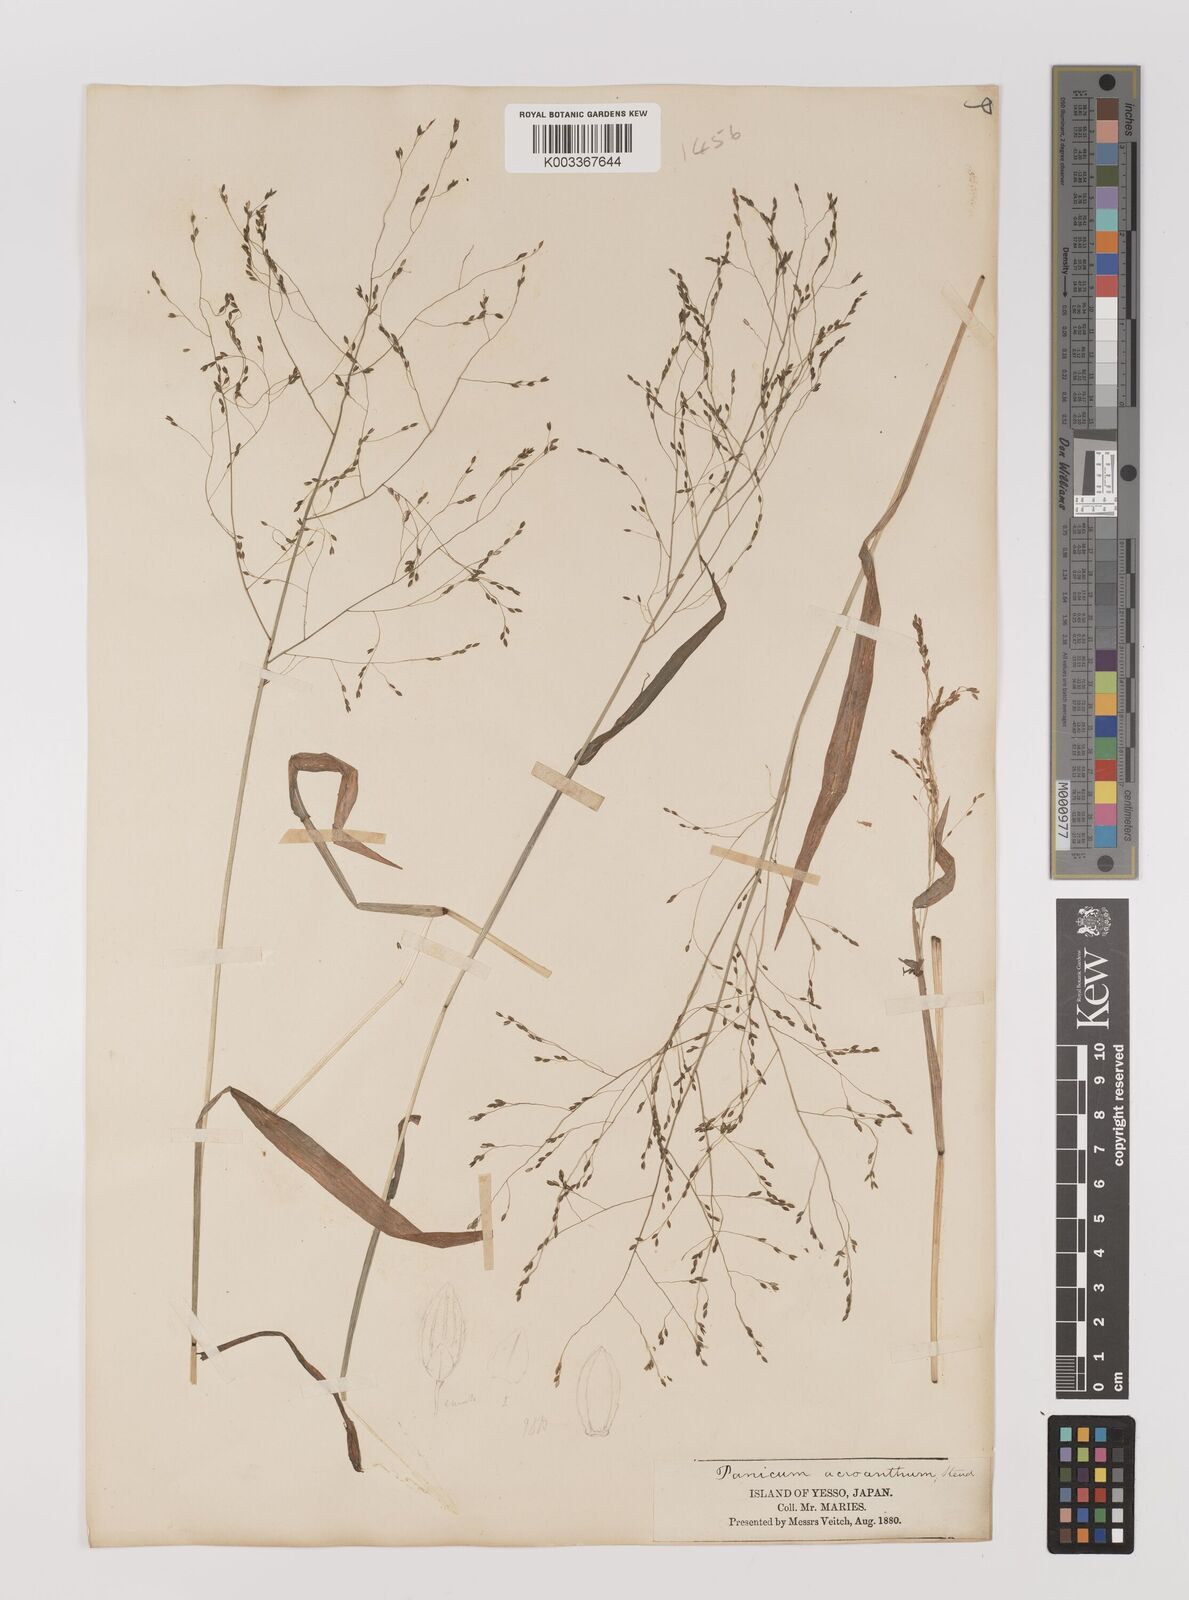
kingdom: Plantae
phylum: Tracheophyta
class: Liliopsida
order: Poales
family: Poaceae
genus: Panicum
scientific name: Panicum bisulcatum
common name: Japanese panicgrass
